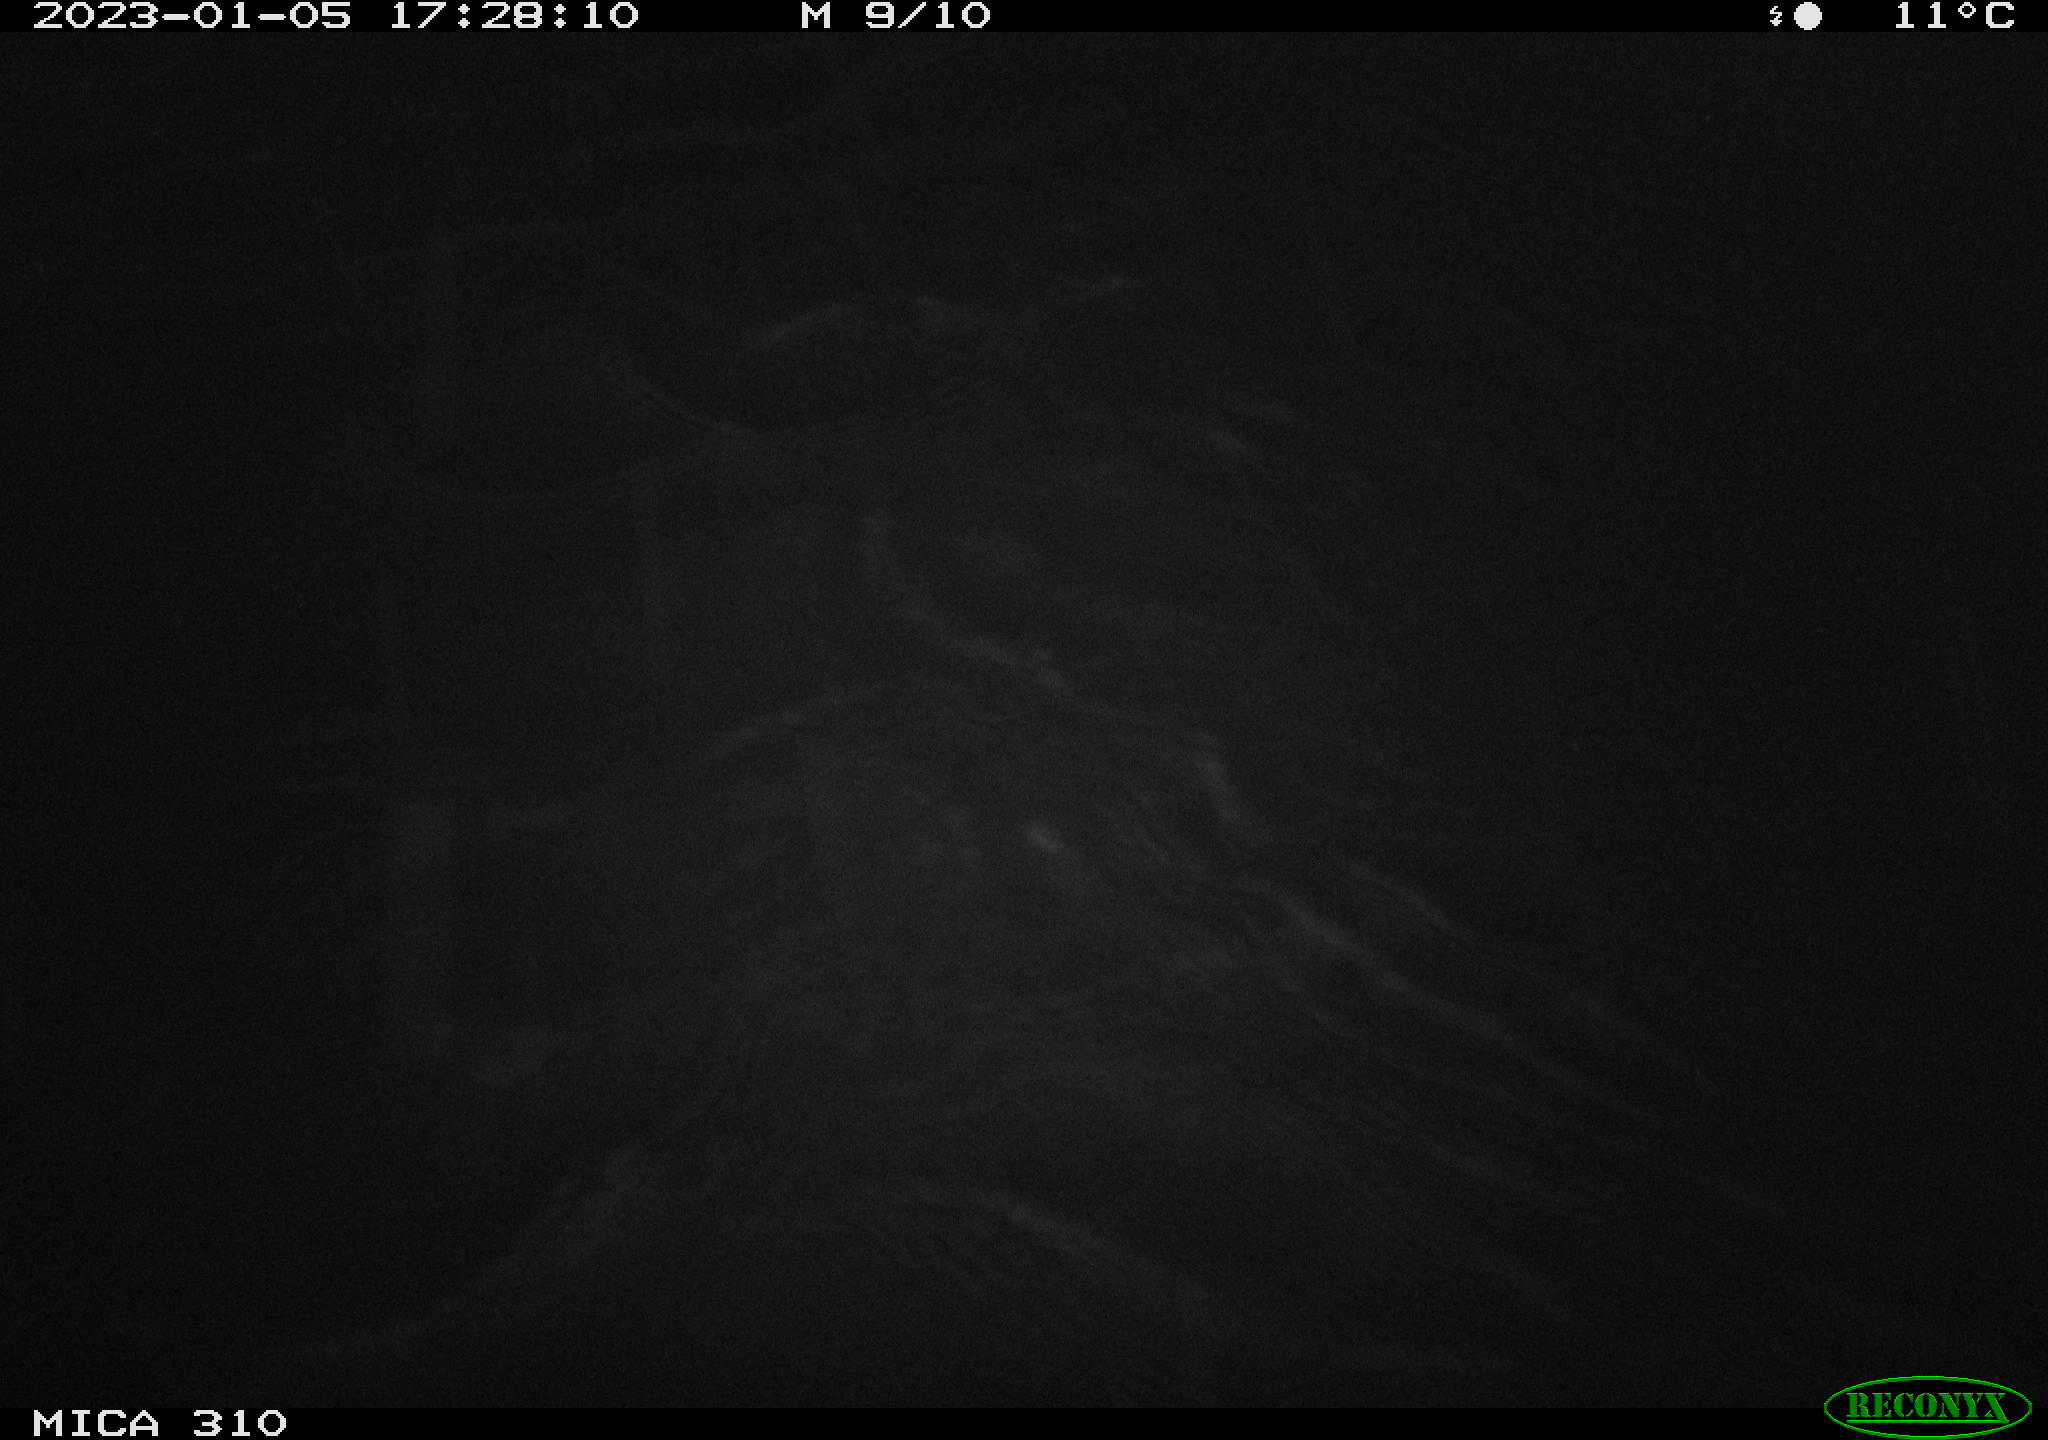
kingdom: Animalia
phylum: Chordata
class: Aves
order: Anseriformes
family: Anatidae
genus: Anas
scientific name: Anas
